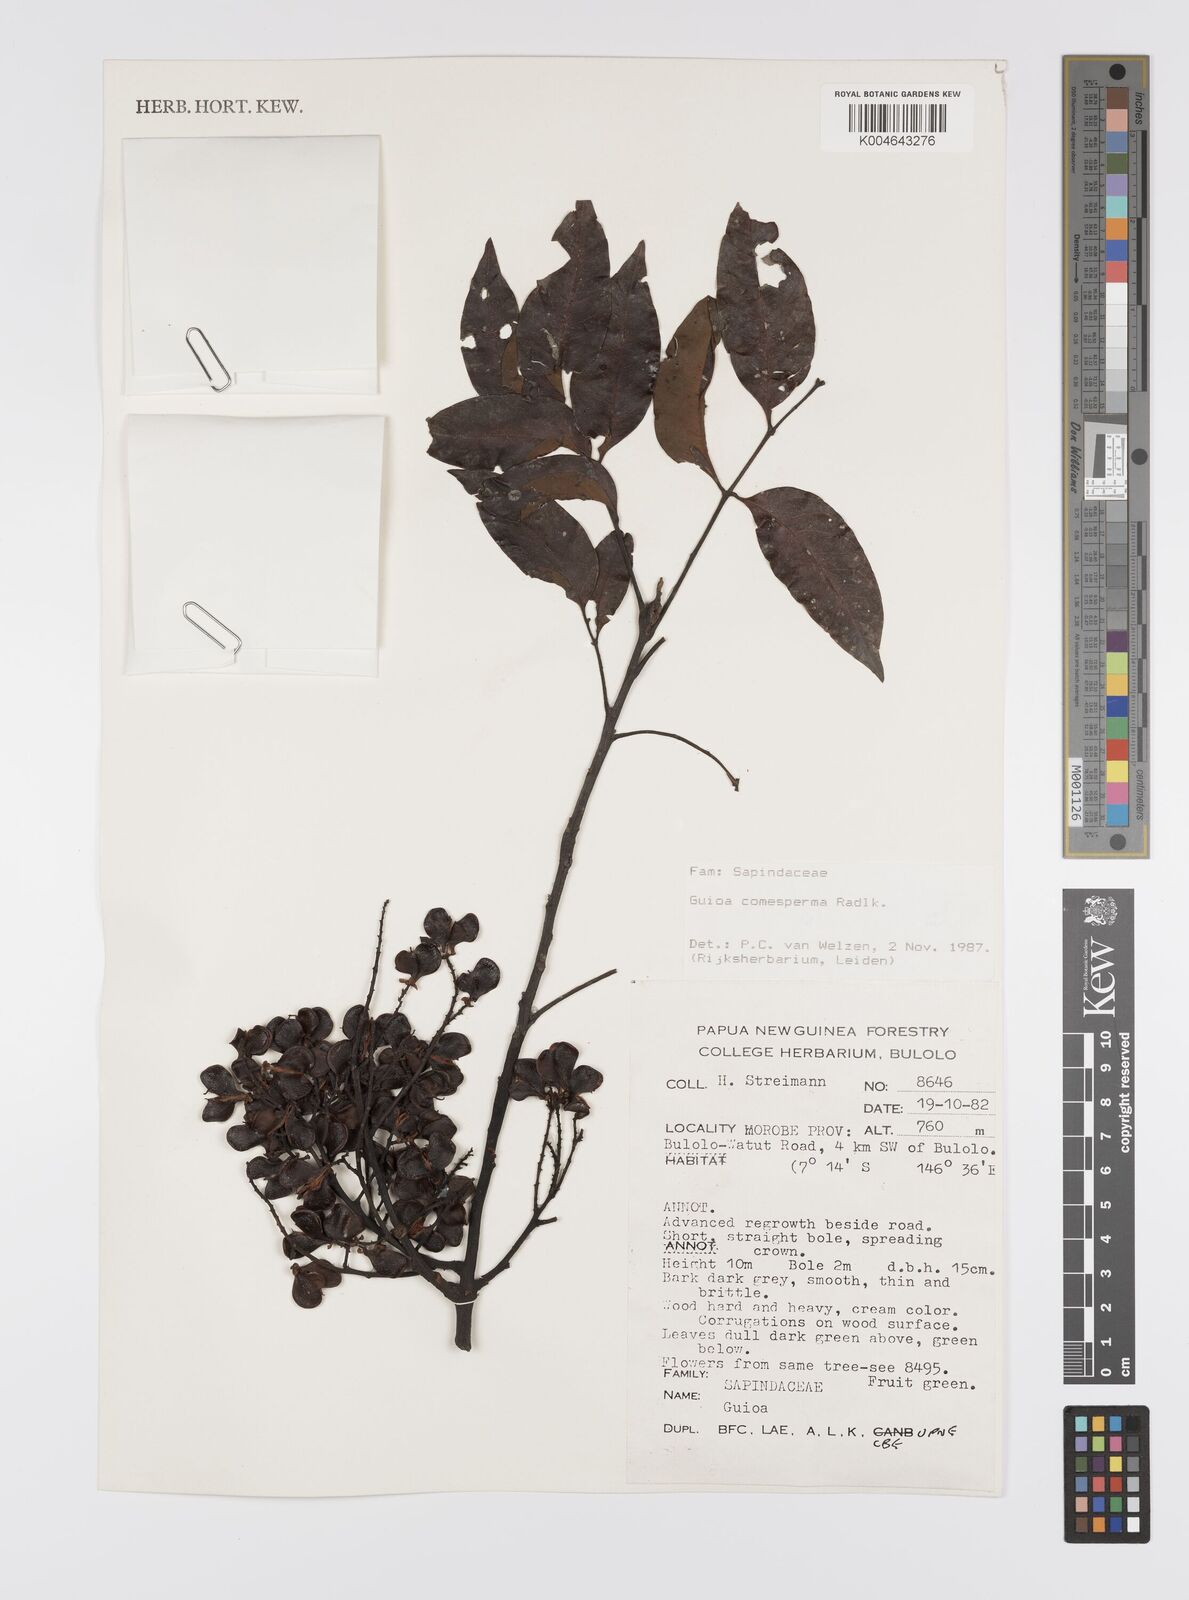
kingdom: Plantae
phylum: Tracheophyta
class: Magnoliopsida
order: Sapindales
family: Sapindaceae
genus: Guioa
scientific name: Guioa comesperma
